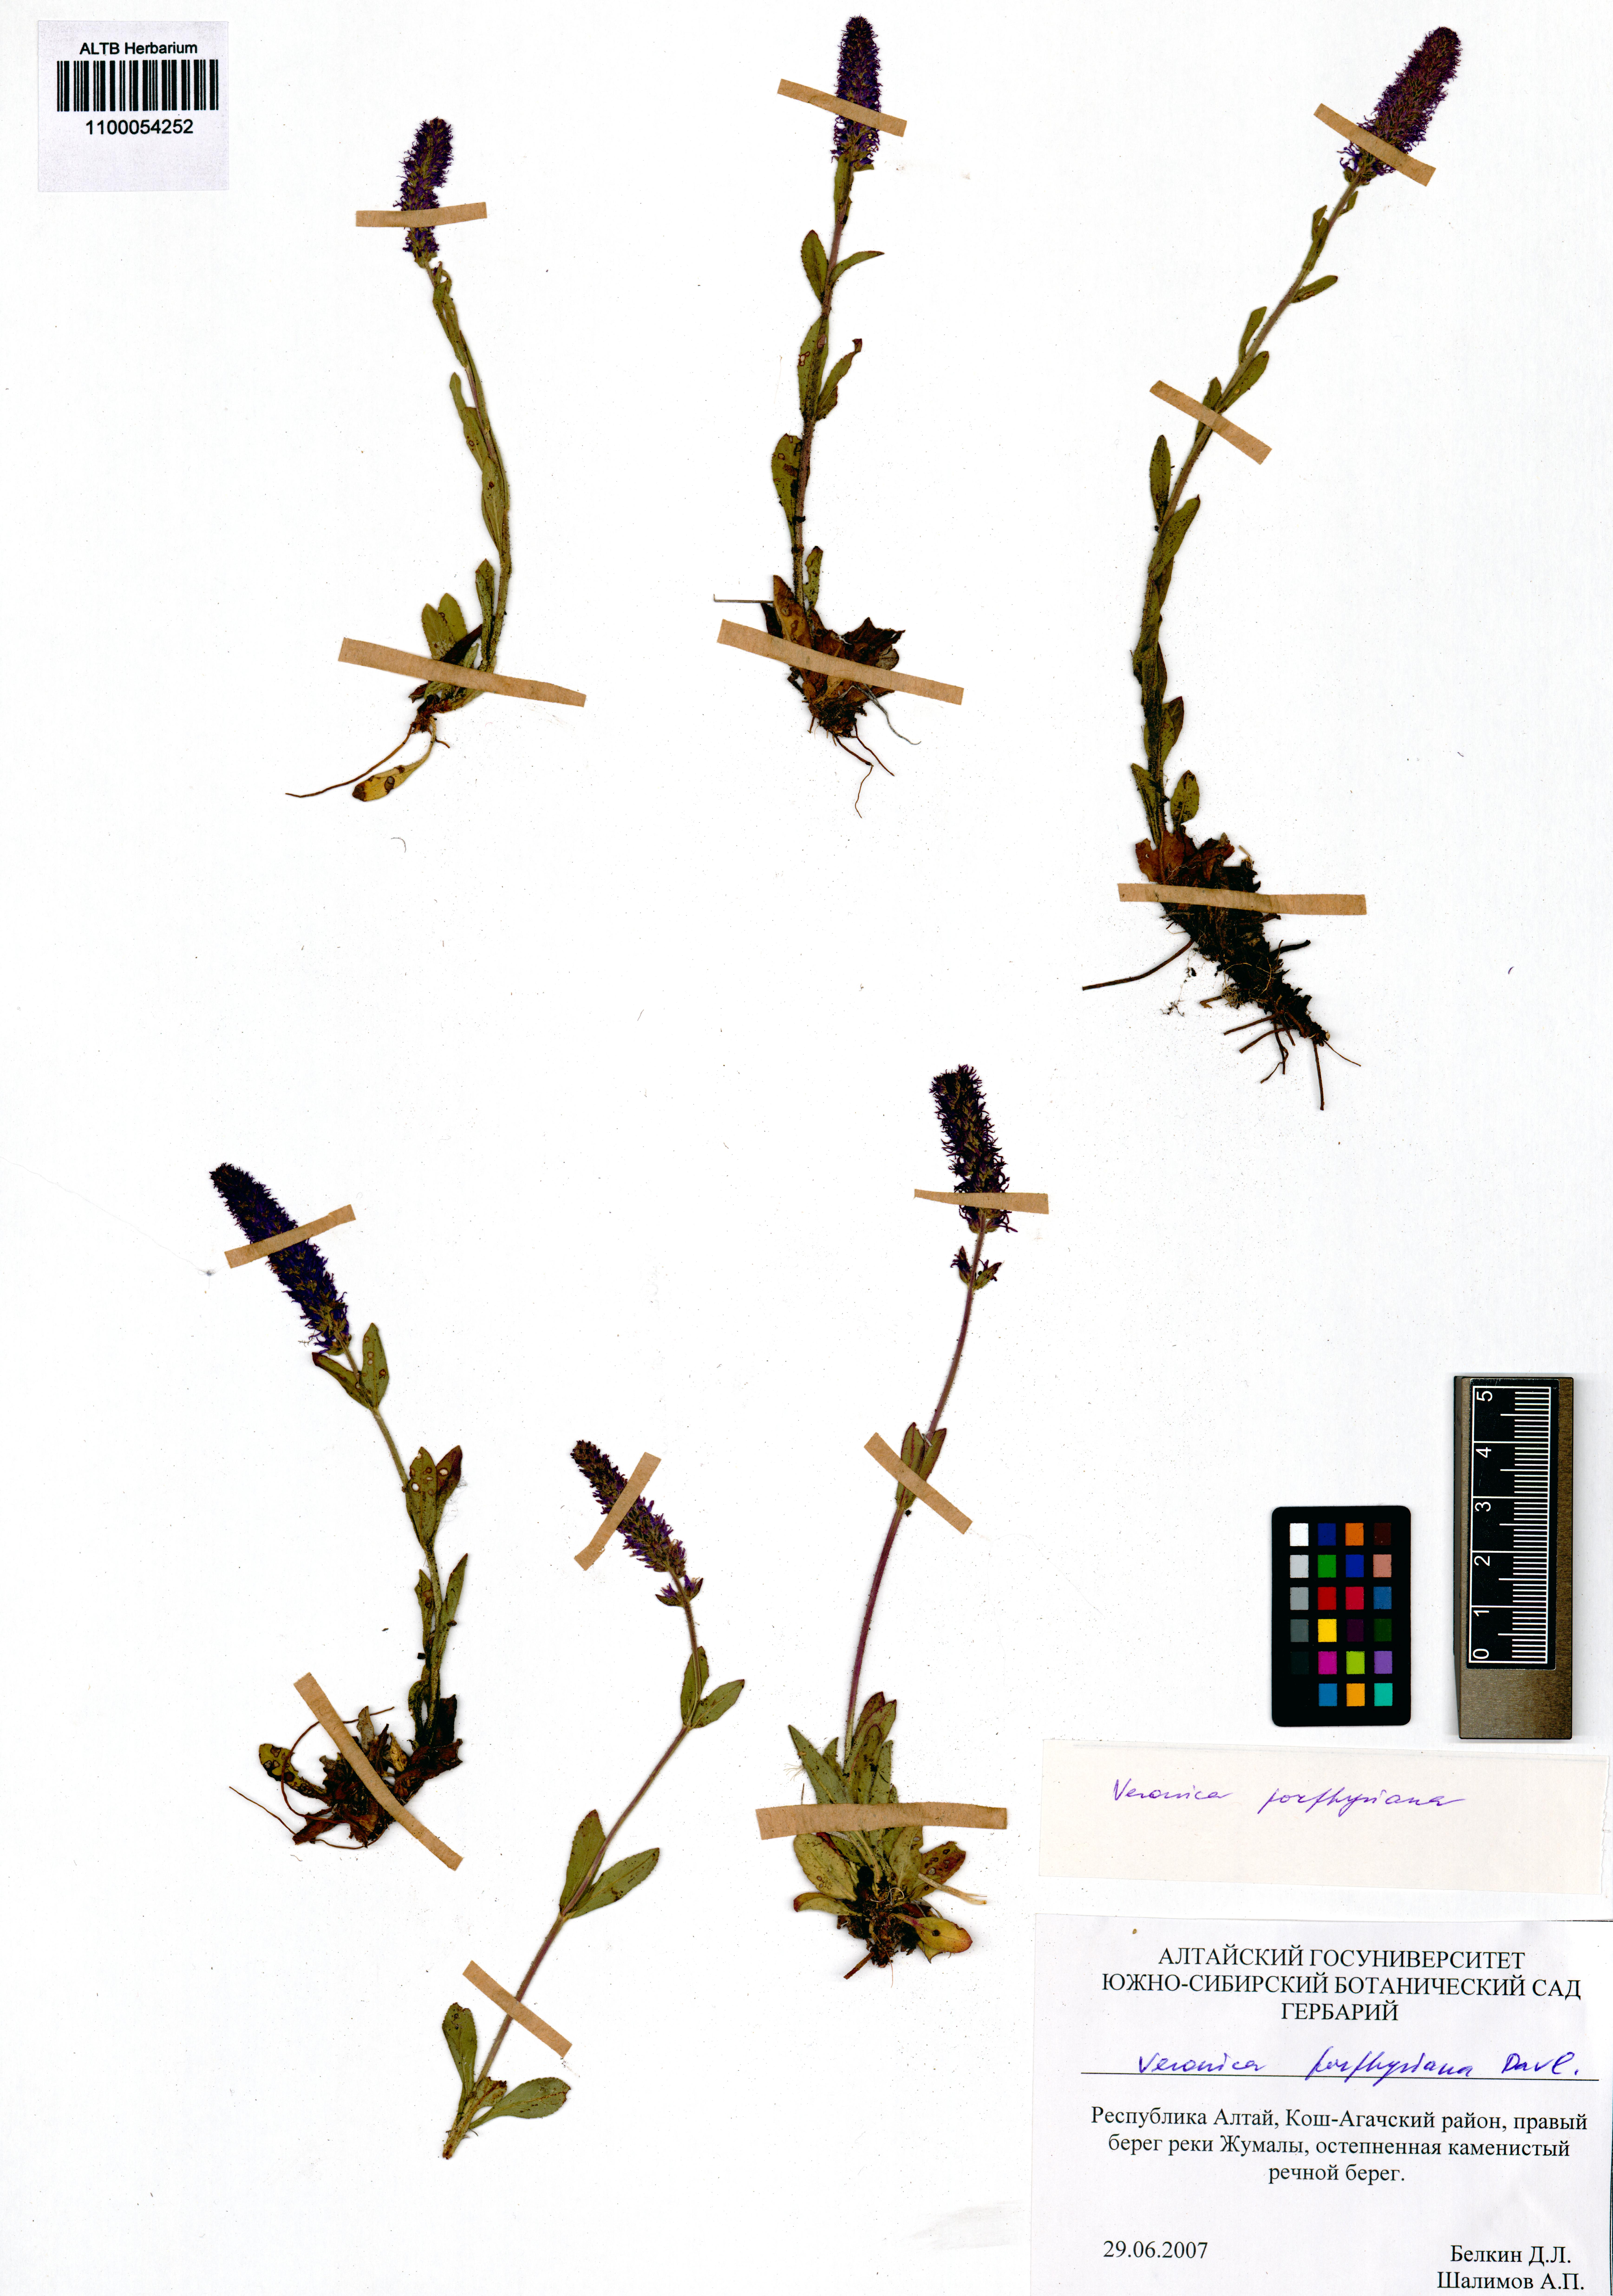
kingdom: Plantae
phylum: Tracheophyta
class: Magnoliopsida
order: Lamiales
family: Plantaginaceae
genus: Veronica
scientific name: Veronica porphyriana
